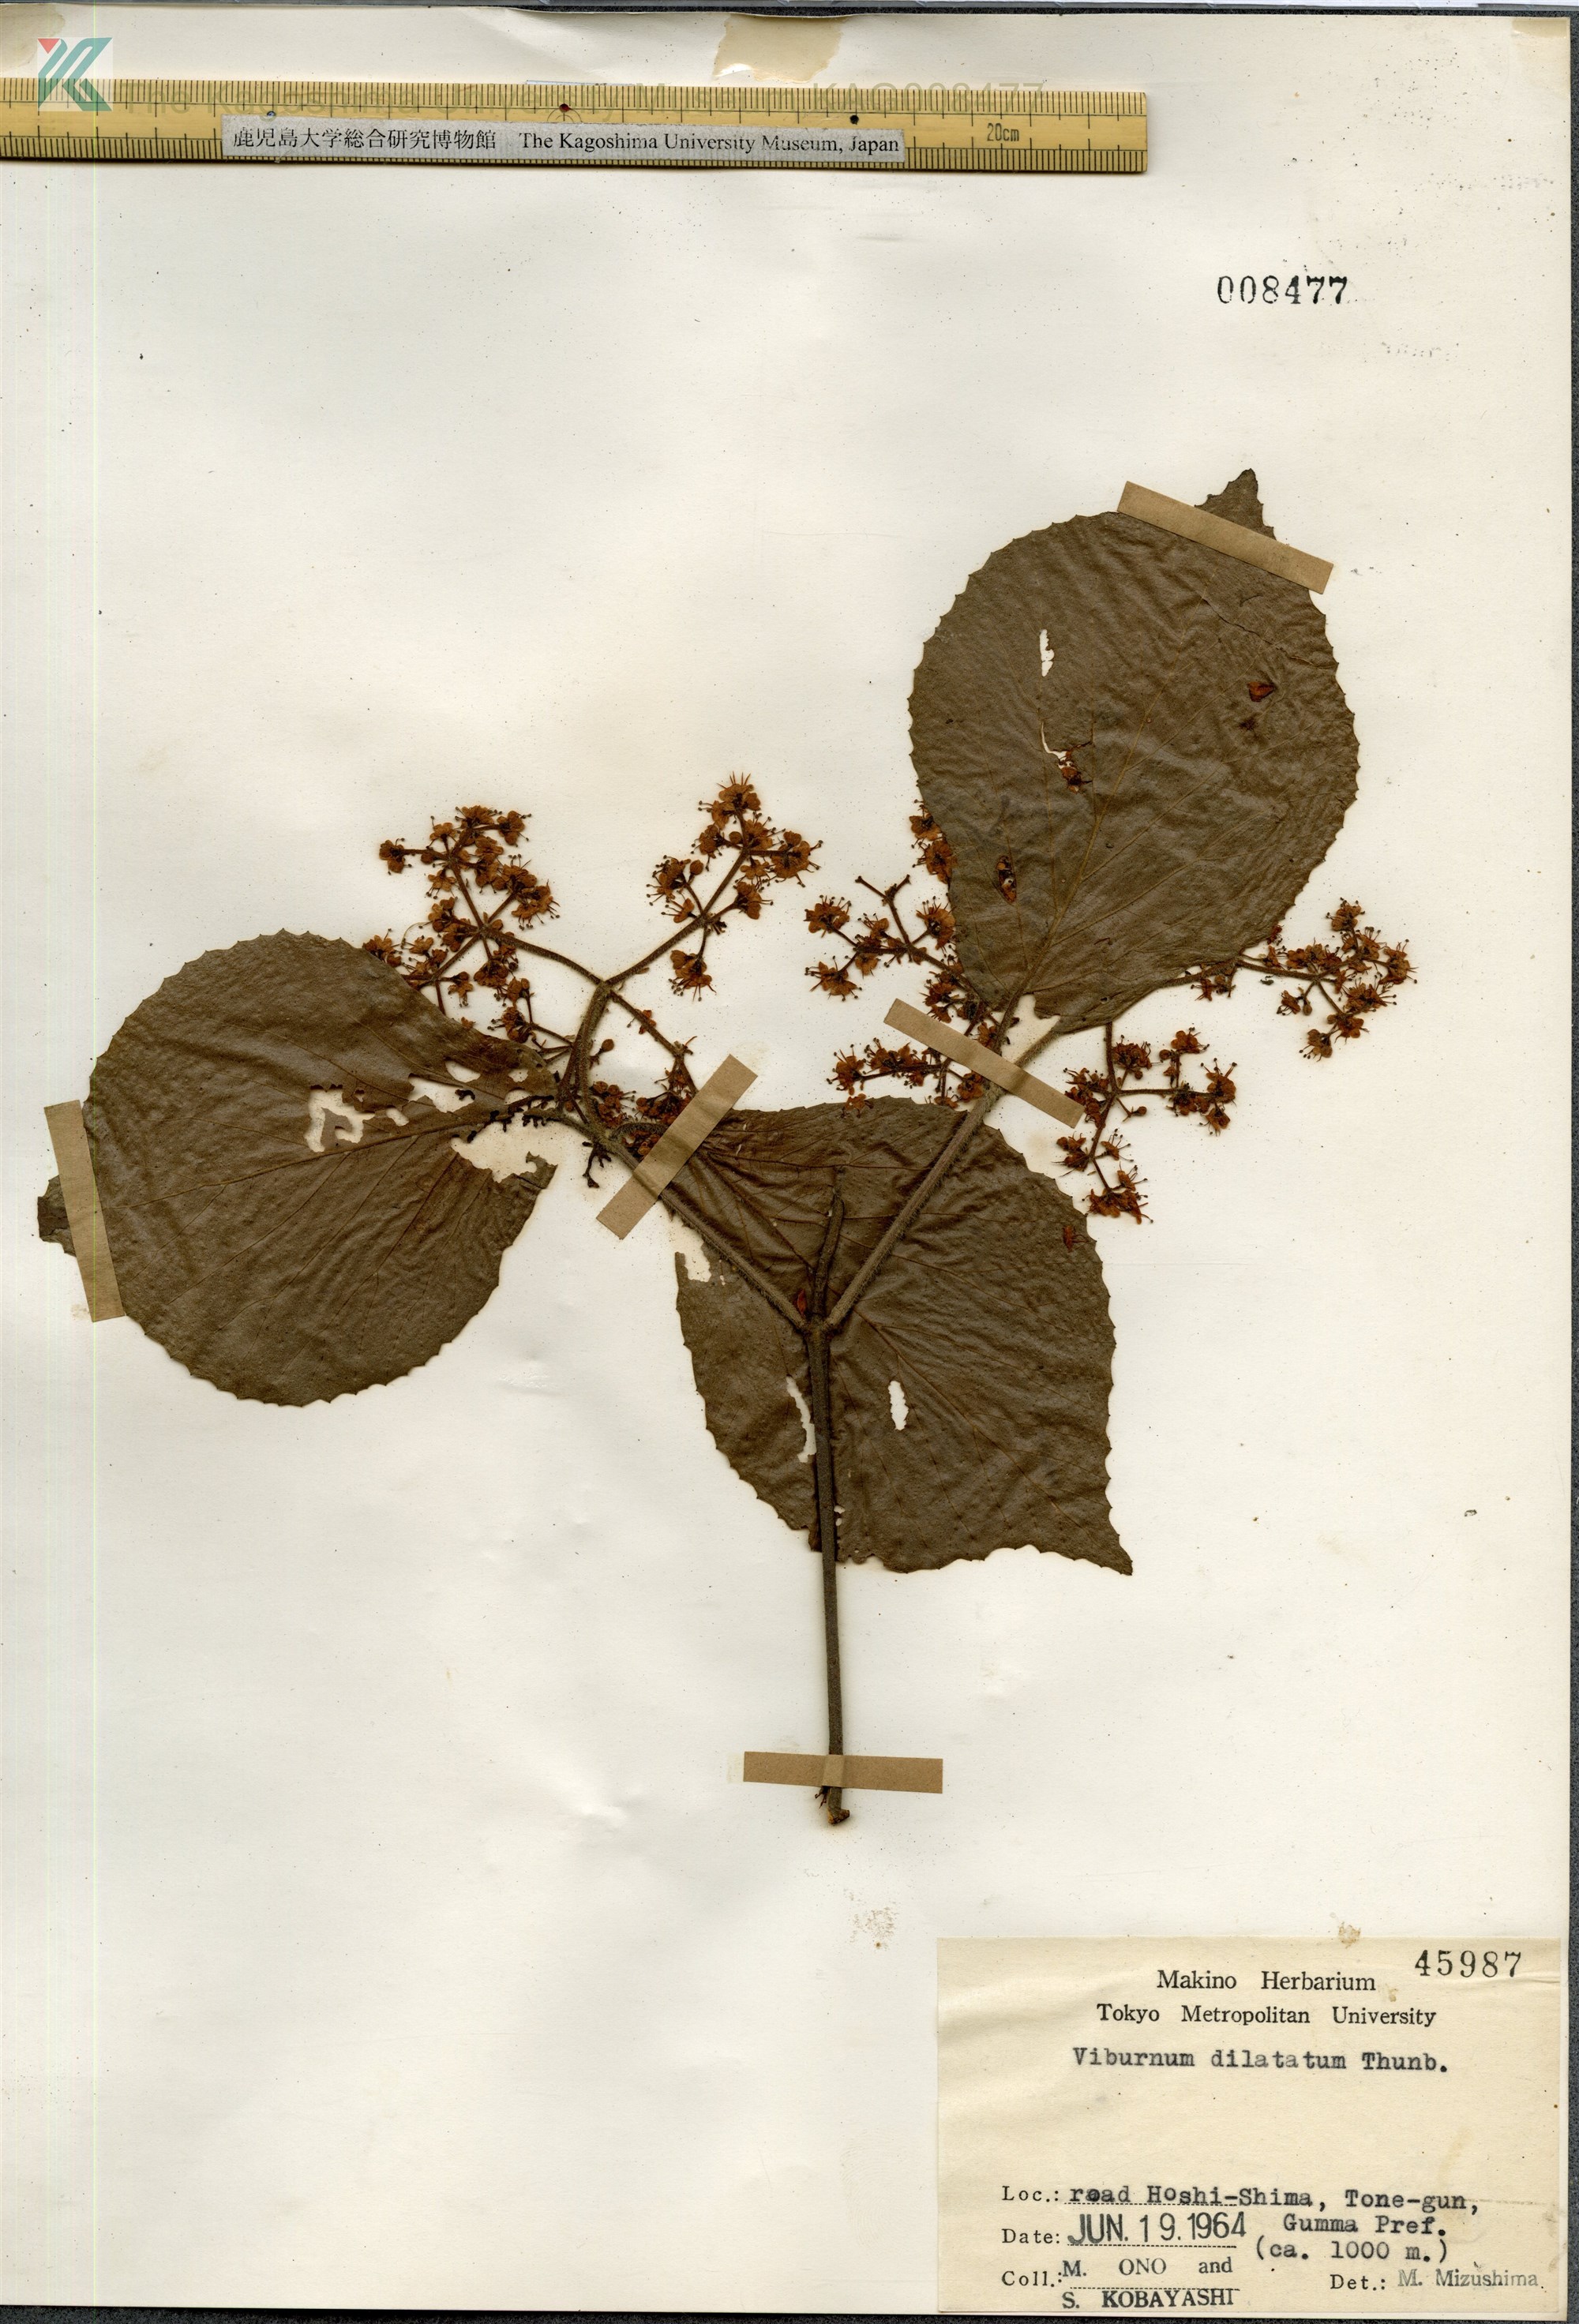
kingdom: Plantae
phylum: Tracheophyta
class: Magnoliopsida
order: Dipsacales
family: Viburnaceae
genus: Viburnum
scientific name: Viburnum dilatatum
